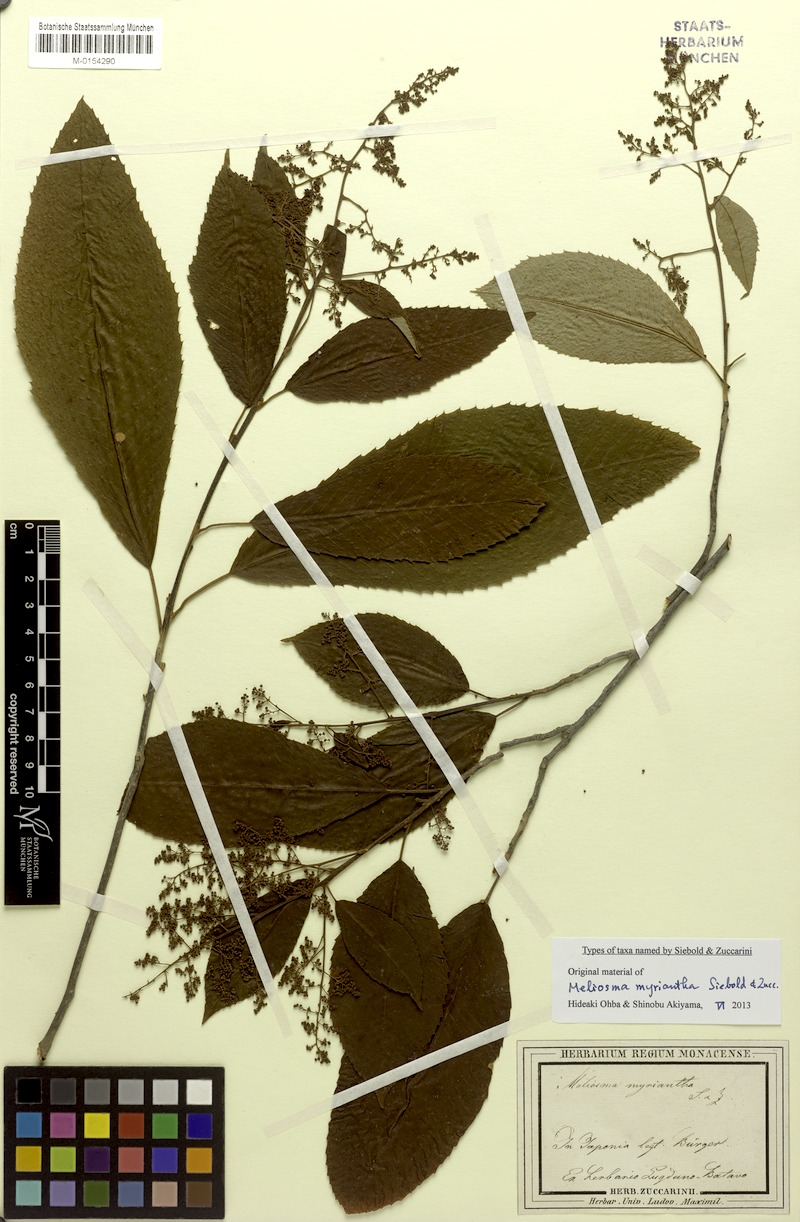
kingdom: Plantae
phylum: Tracheophyta
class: Magnoliopsida
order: Proteales
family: Sabiaceae
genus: Meliosma
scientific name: Meliosma myriantha
